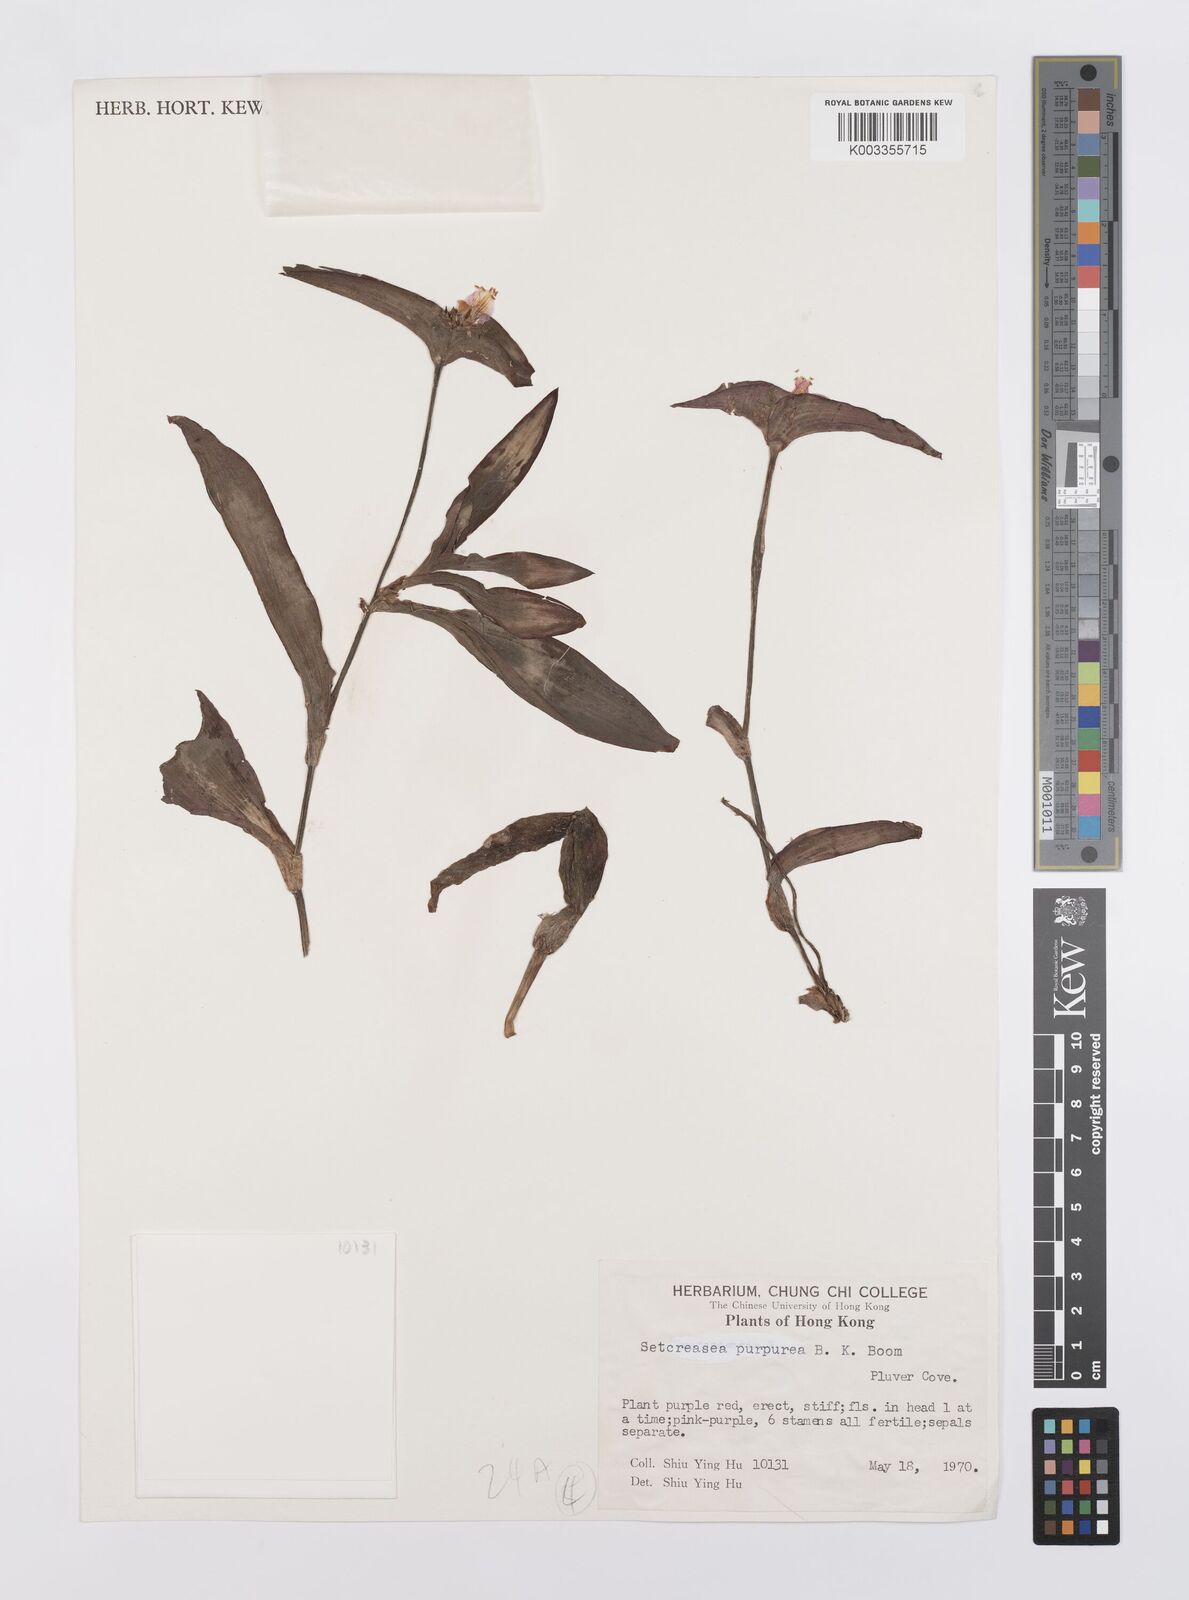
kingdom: Plantae
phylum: Tracheophyta
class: Liliopsida
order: Commelinales
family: Commelinaceae
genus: Callisia
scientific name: Callisia purpurascens
